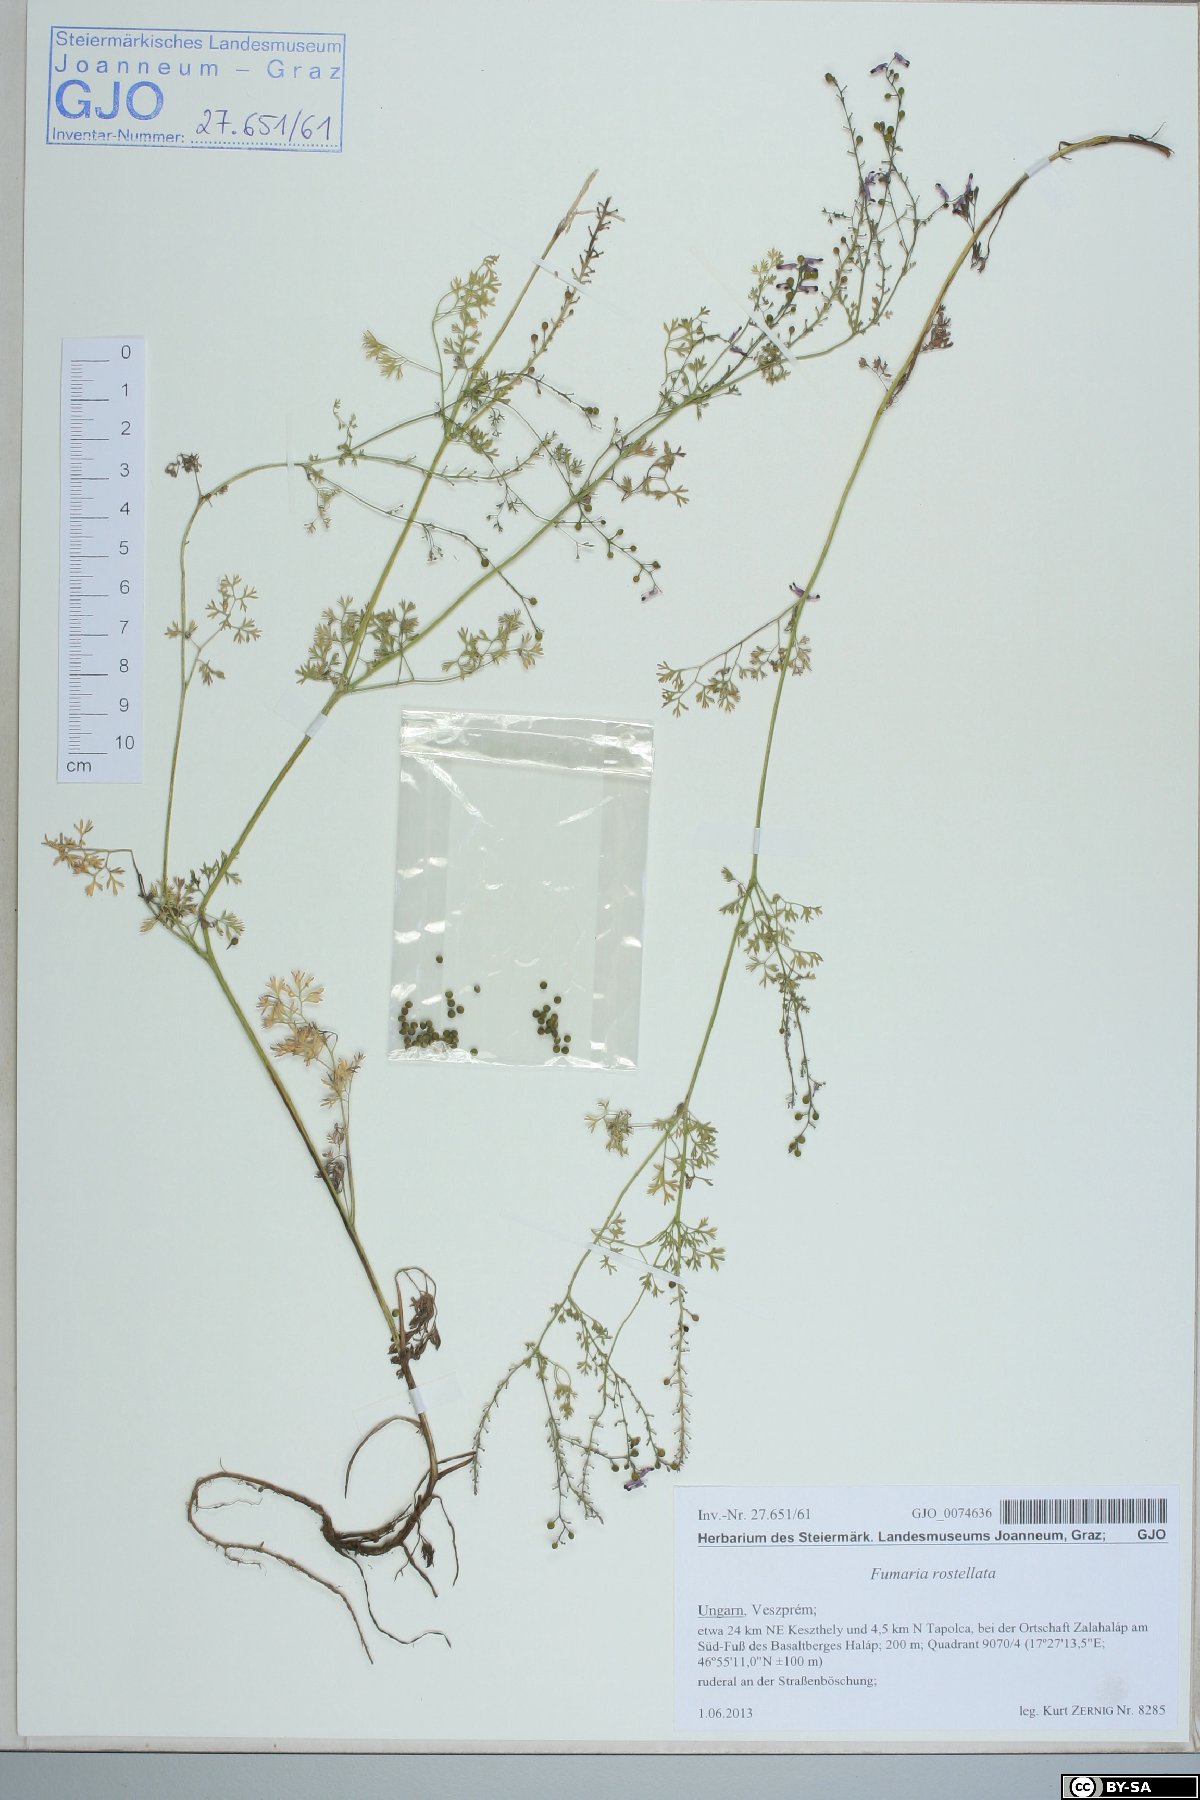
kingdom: Plantae
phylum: Tracheophyta
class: Magnoliopsida
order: Ranunculales
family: Papaveraceae
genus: Fumaria
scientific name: Fumaria rostellata
